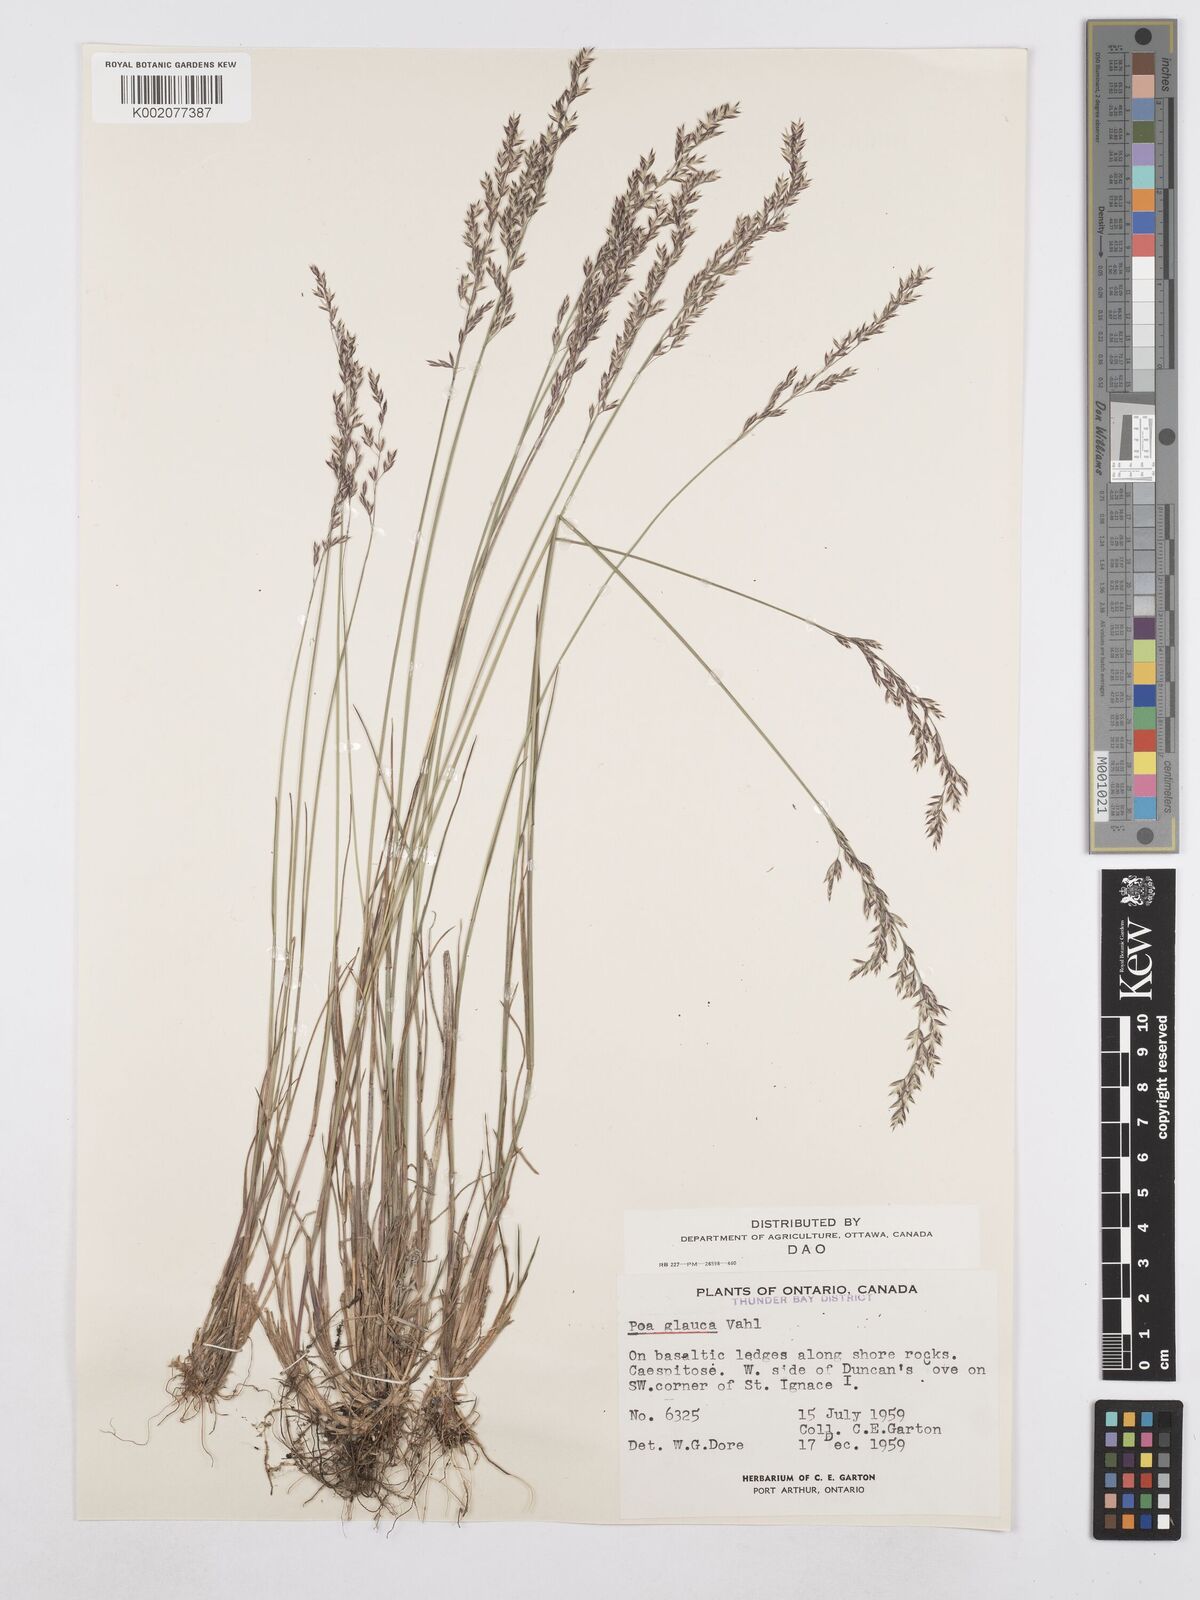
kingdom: Plantae
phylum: Tracheophyta
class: Liliopsida
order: Poales
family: Poaceae
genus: Poa
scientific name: Poa glauca
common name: Glaucous bluegrass
